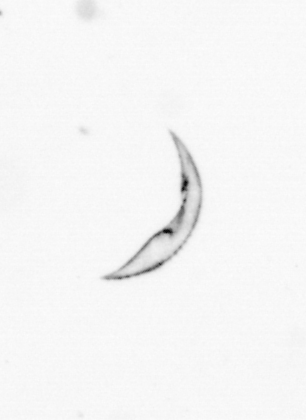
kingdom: Chromista
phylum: Ochrophyta
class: Bacillariophyceae
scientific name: Bacillariophyceae
